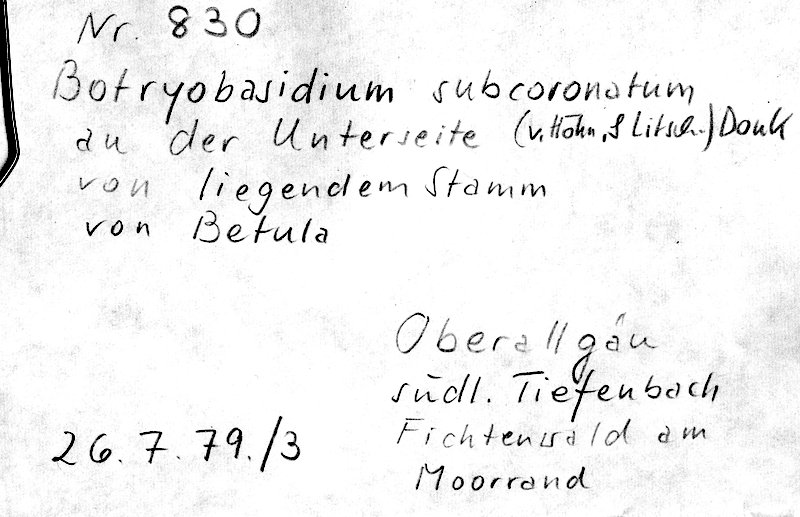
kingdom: Plantae
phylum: Tracheophyta
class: Magnoliopsida
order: Fagales
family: Betulaceae
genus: Betula
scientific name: Betula
